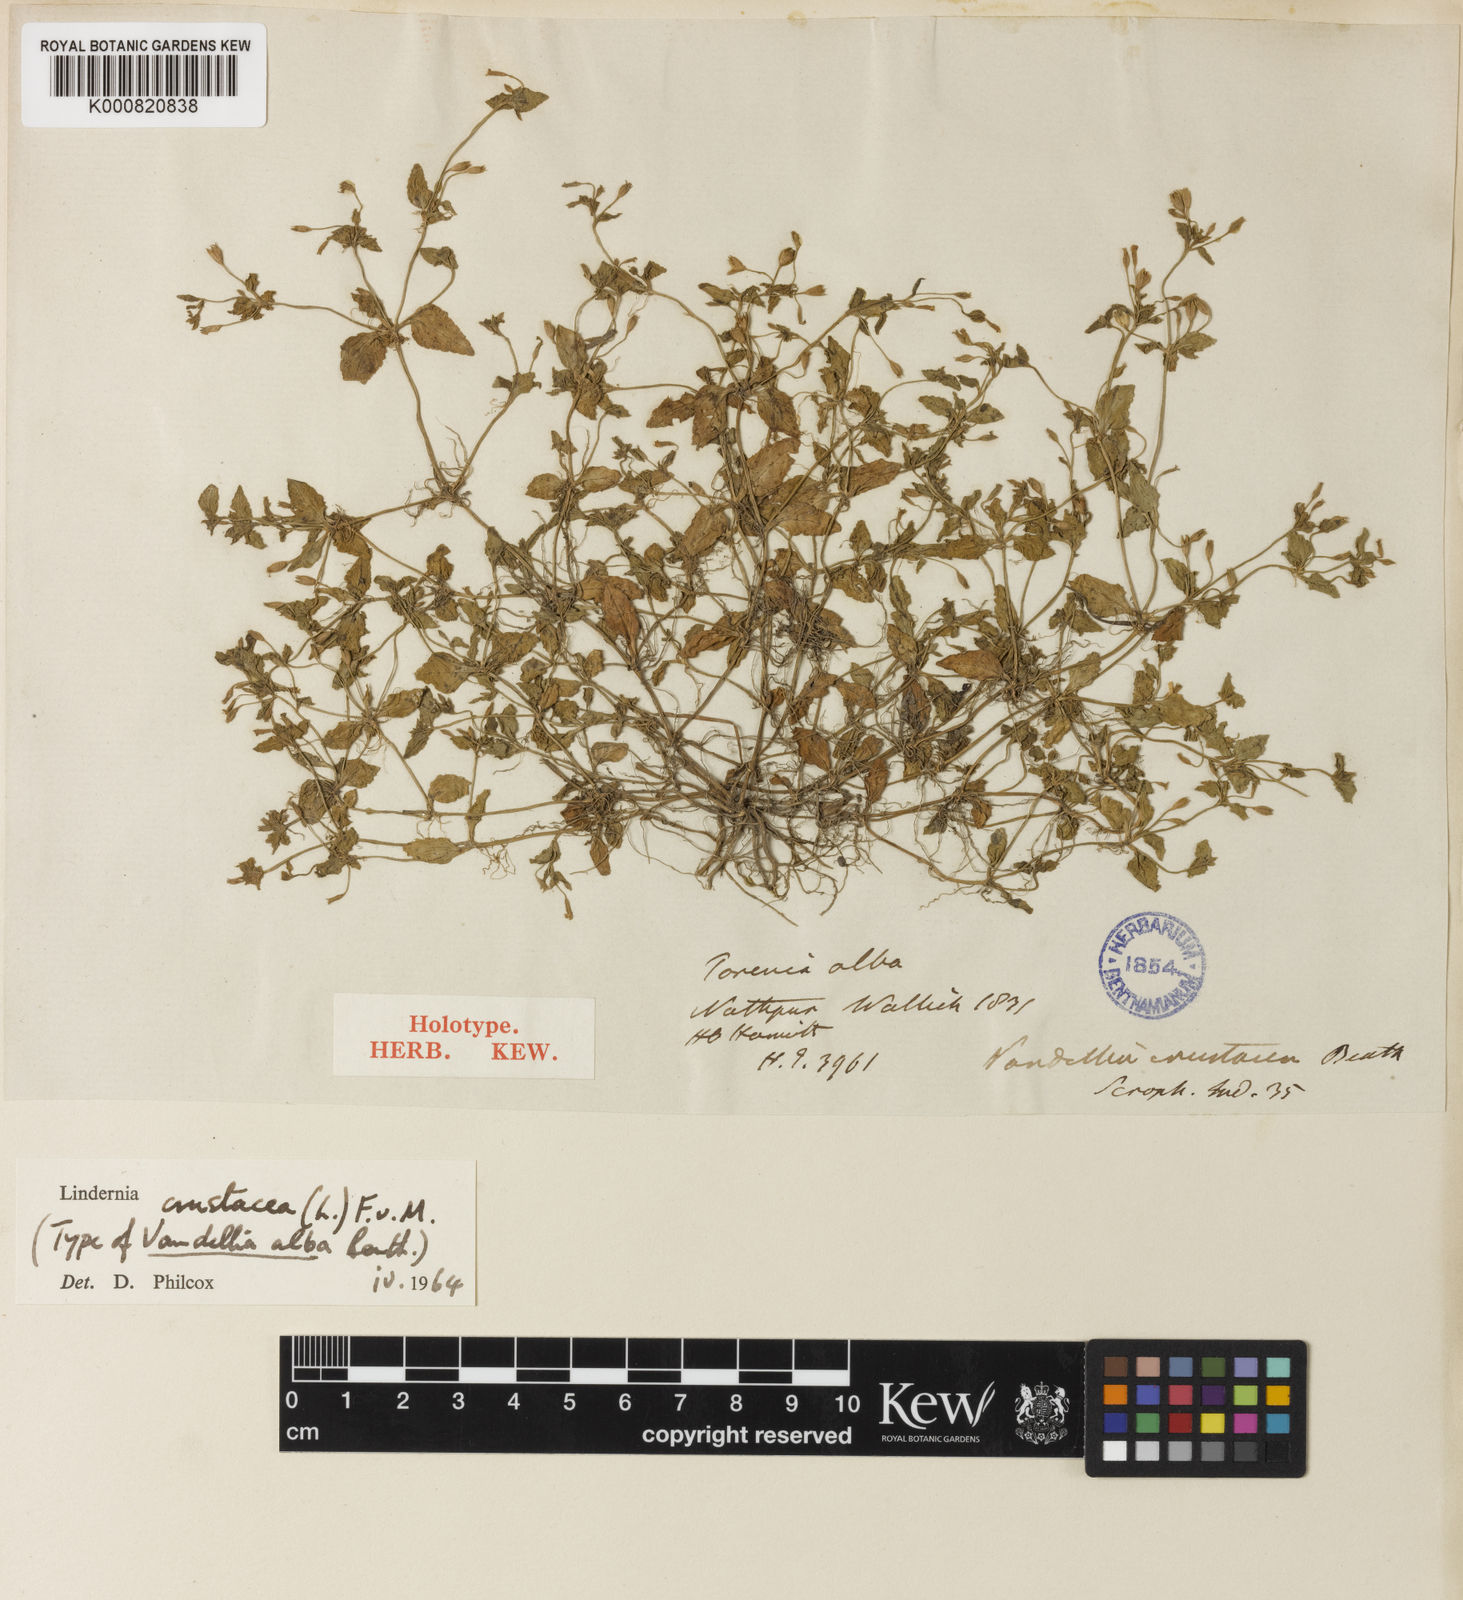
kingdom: Plantae
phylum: Tracheophyta
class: Magnoliopsida
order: Lamiales
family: Linderniaceae
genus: Torenia
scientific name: Torenia crustacea
